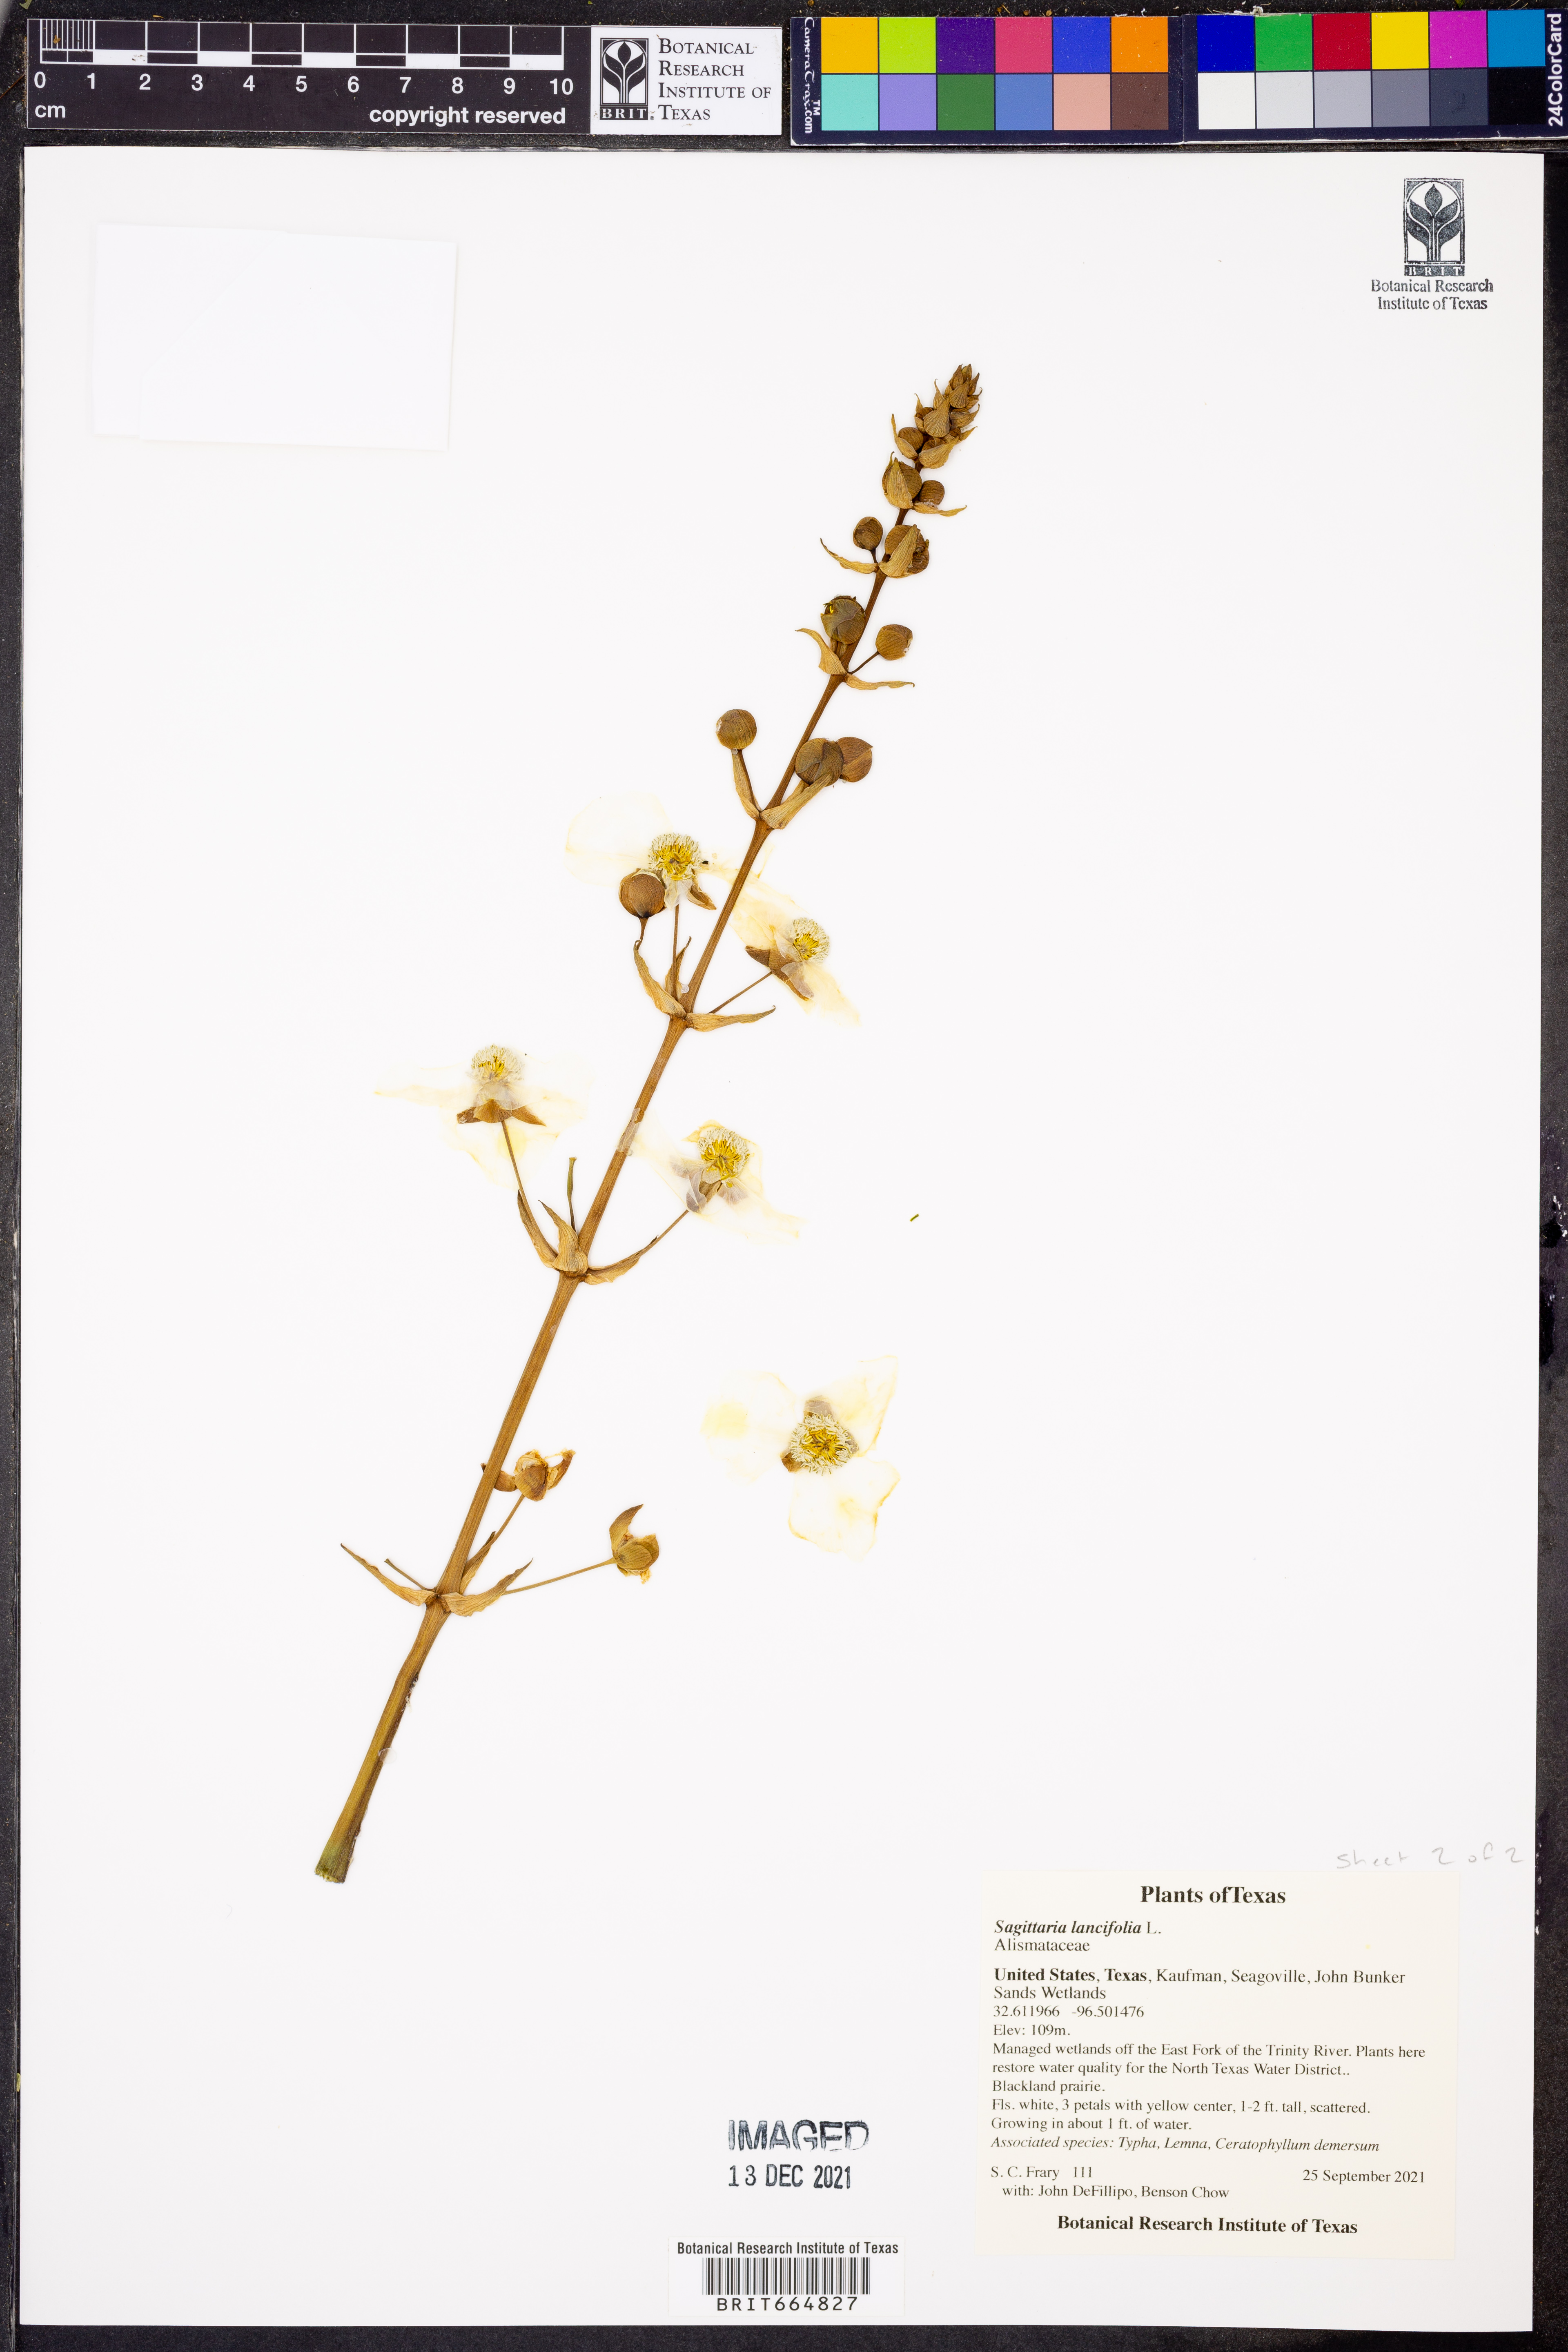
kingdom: Plantae
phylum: Tracheophyta
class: Liliopsida
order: Alismatales
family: Alismataceae
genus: Sagittaria
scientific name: Sagittaria lancifolia
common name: Lance-leaf arrowhead
